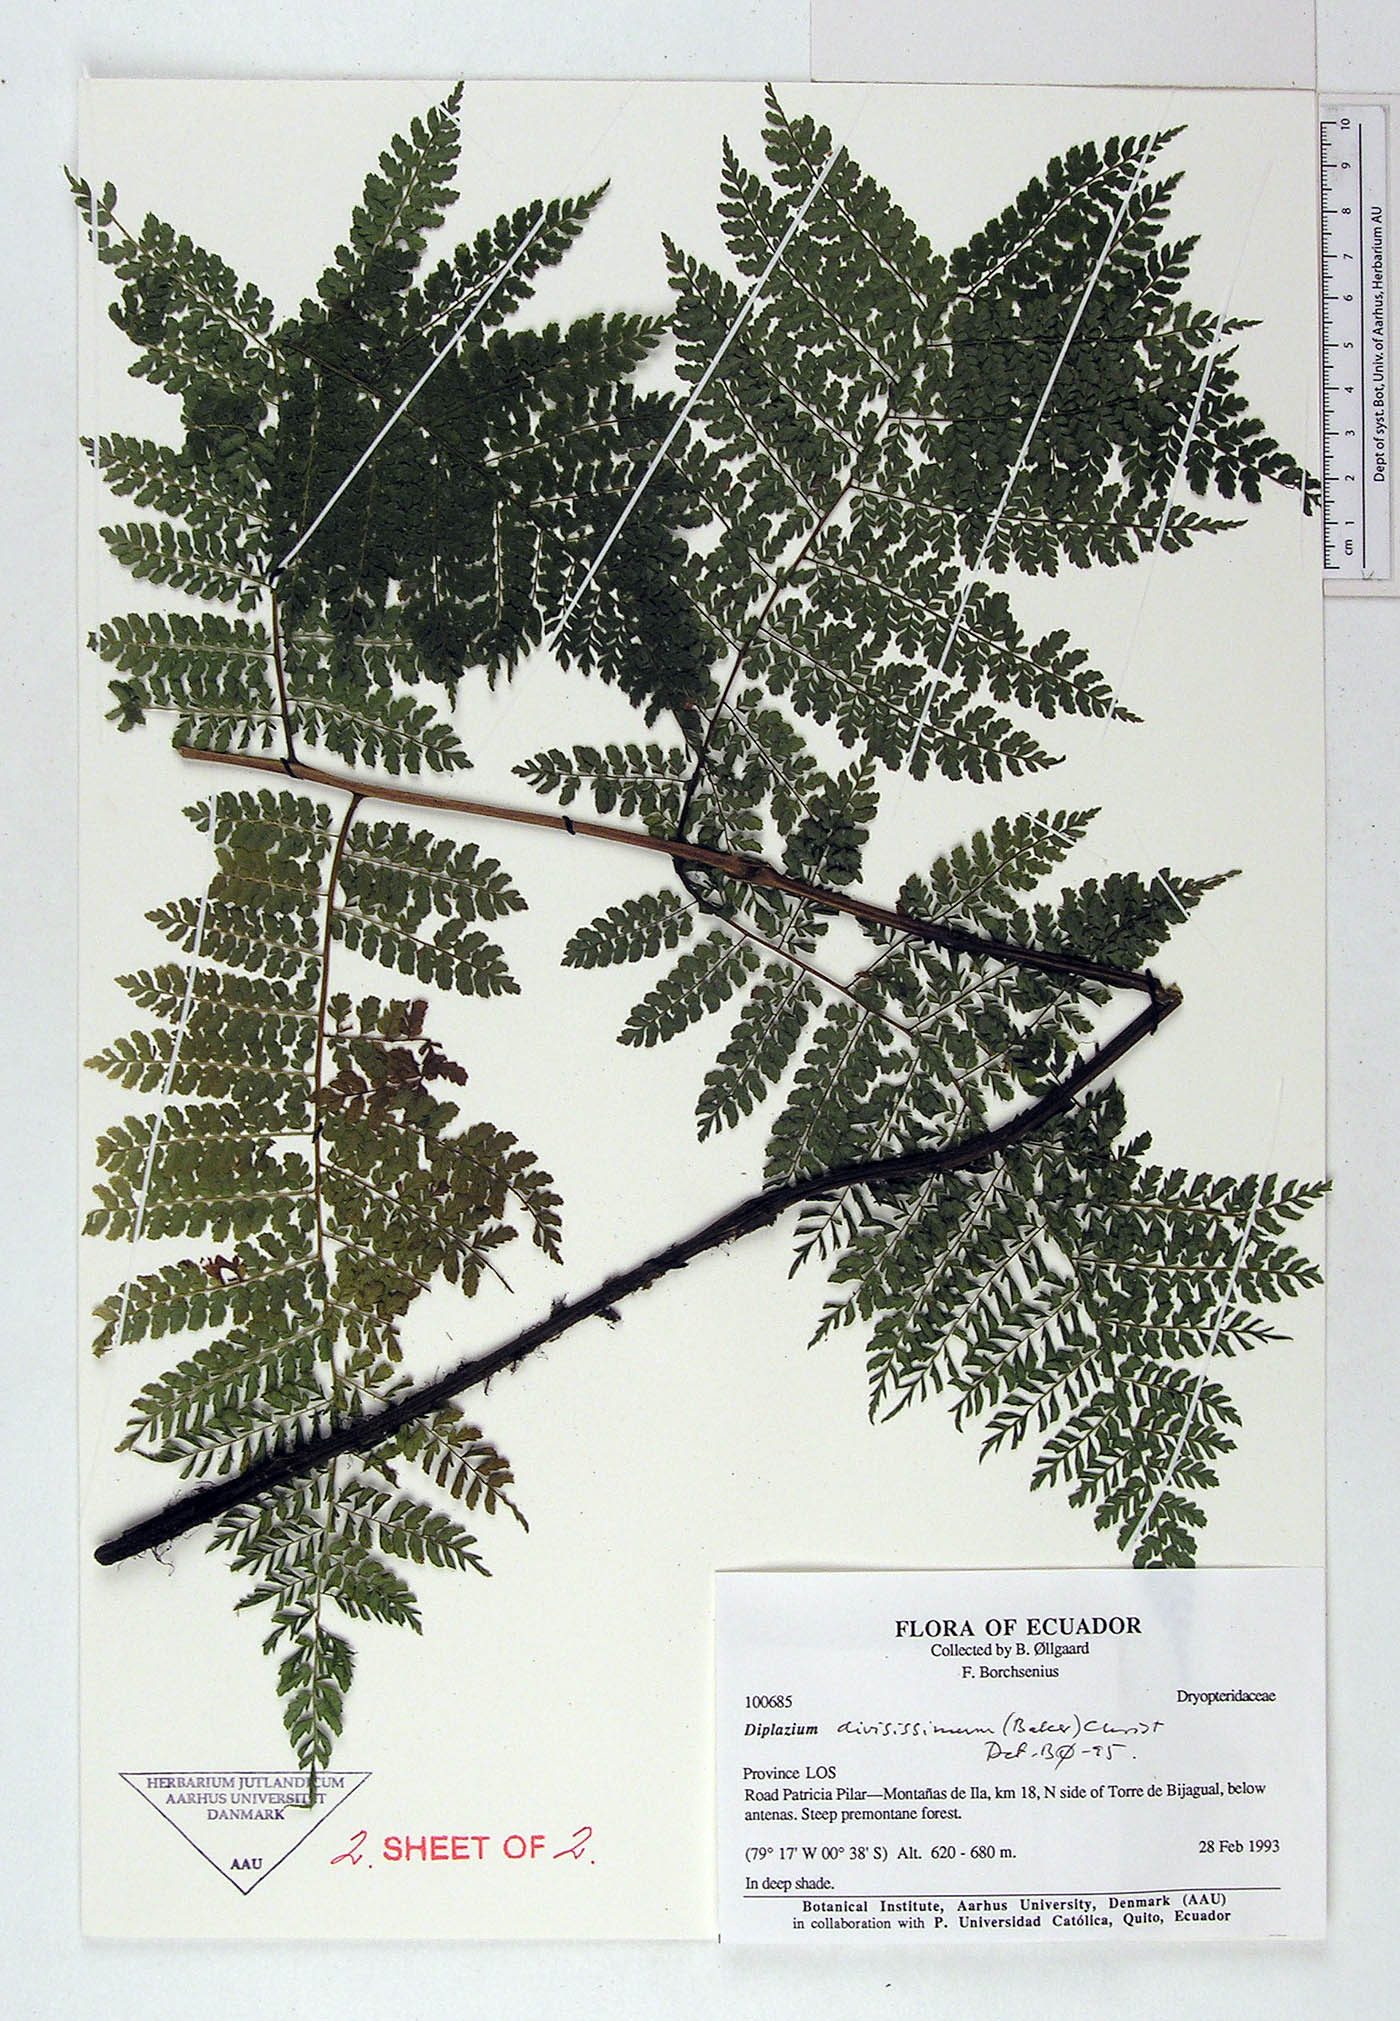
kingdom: Plantae
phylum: Tracheophyta
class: Polypodiopsida
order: Polypodiales
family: Athyriaceae
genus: Diplazium
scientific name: Diplazium divisissimum
